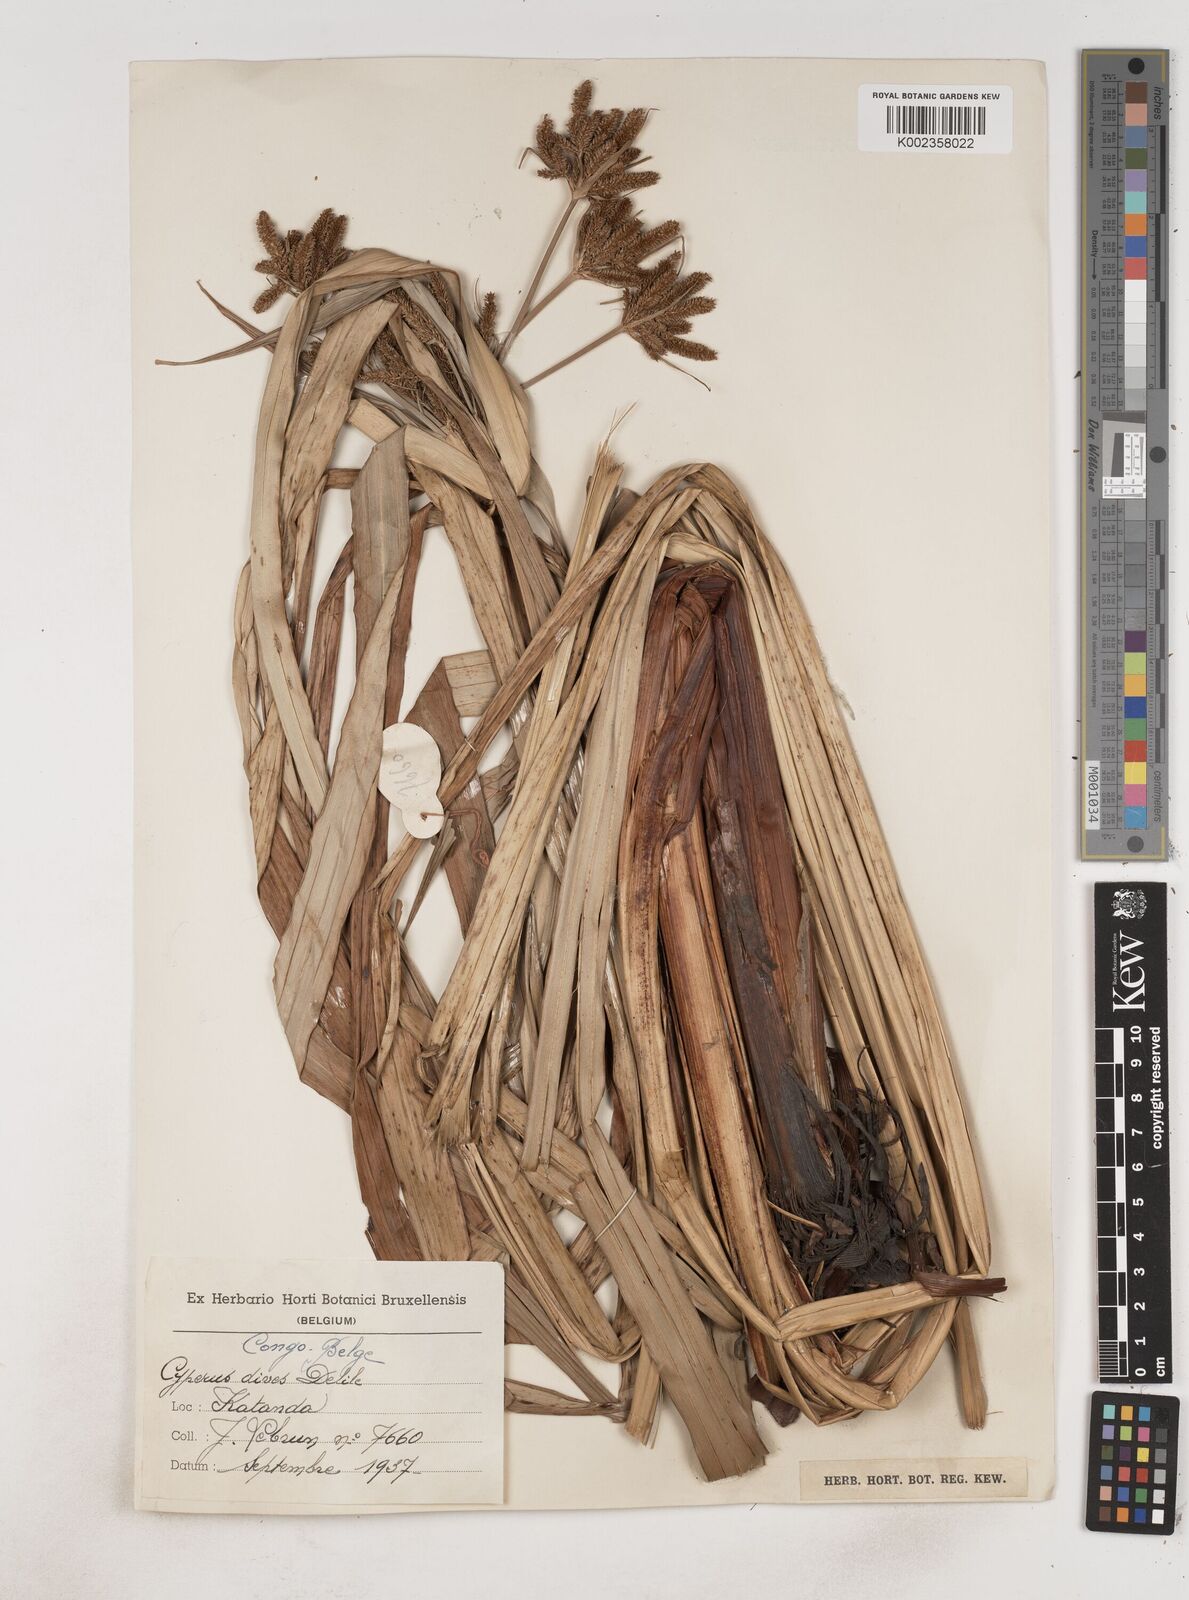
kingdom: Plantae
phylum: Tracheophyta
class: Liliopsida
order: Poales
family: Cyperaceae
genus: Cyperus
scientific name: Cyperus dives
